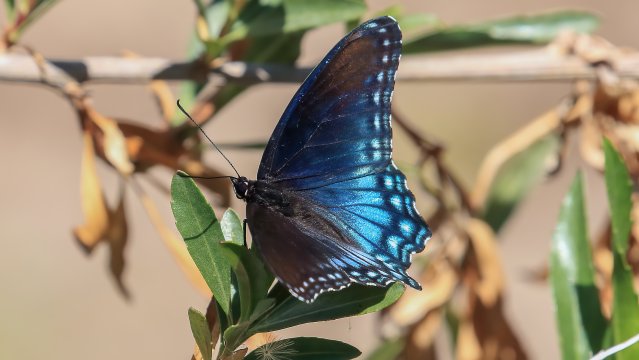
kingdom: Animalia
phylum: Arthropoda
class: Insecta
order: Lepidoptera
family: Nymphalidae
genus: Limenitis
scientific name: Limenitis arthemis
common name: Red-spotted Admiral
